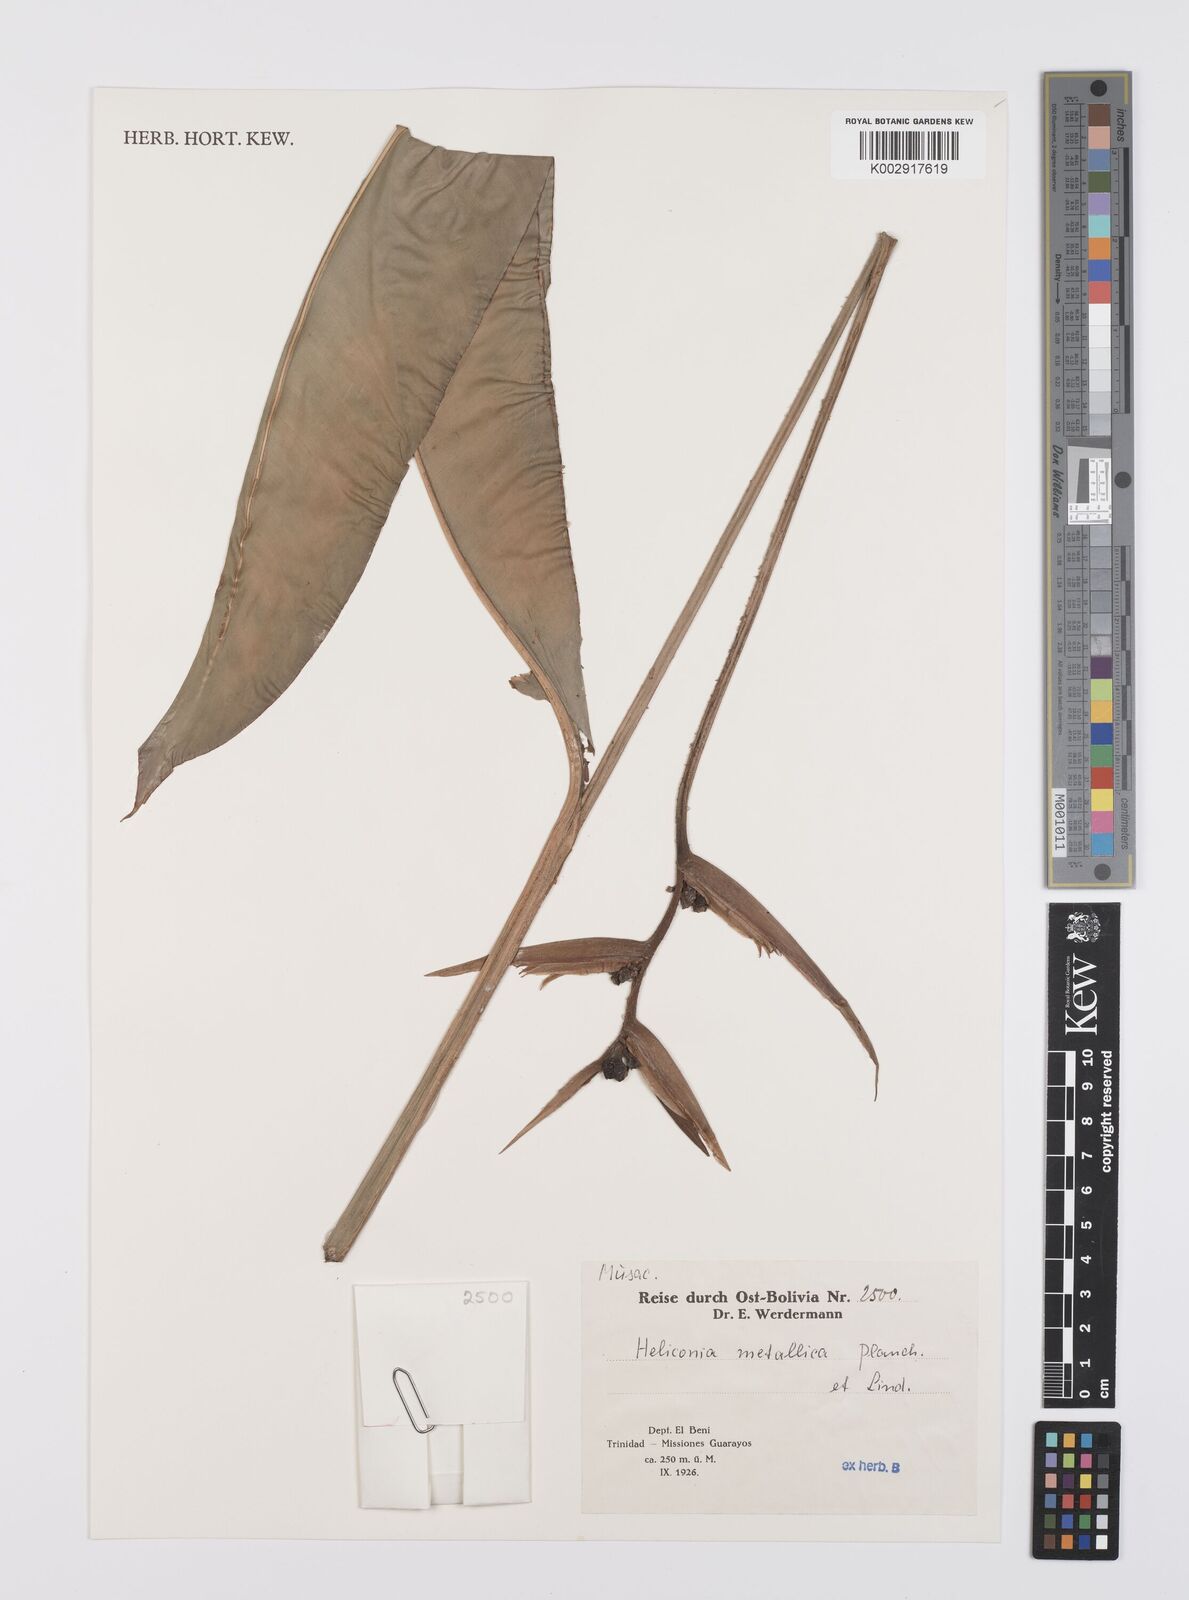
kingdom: Plantae
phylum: Tracheophyta
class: Liliopsida
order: Zingiberales
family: Heliconiaceae
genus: Heliconia
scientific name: Heliconia metallica
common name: Shining bird of paradise
